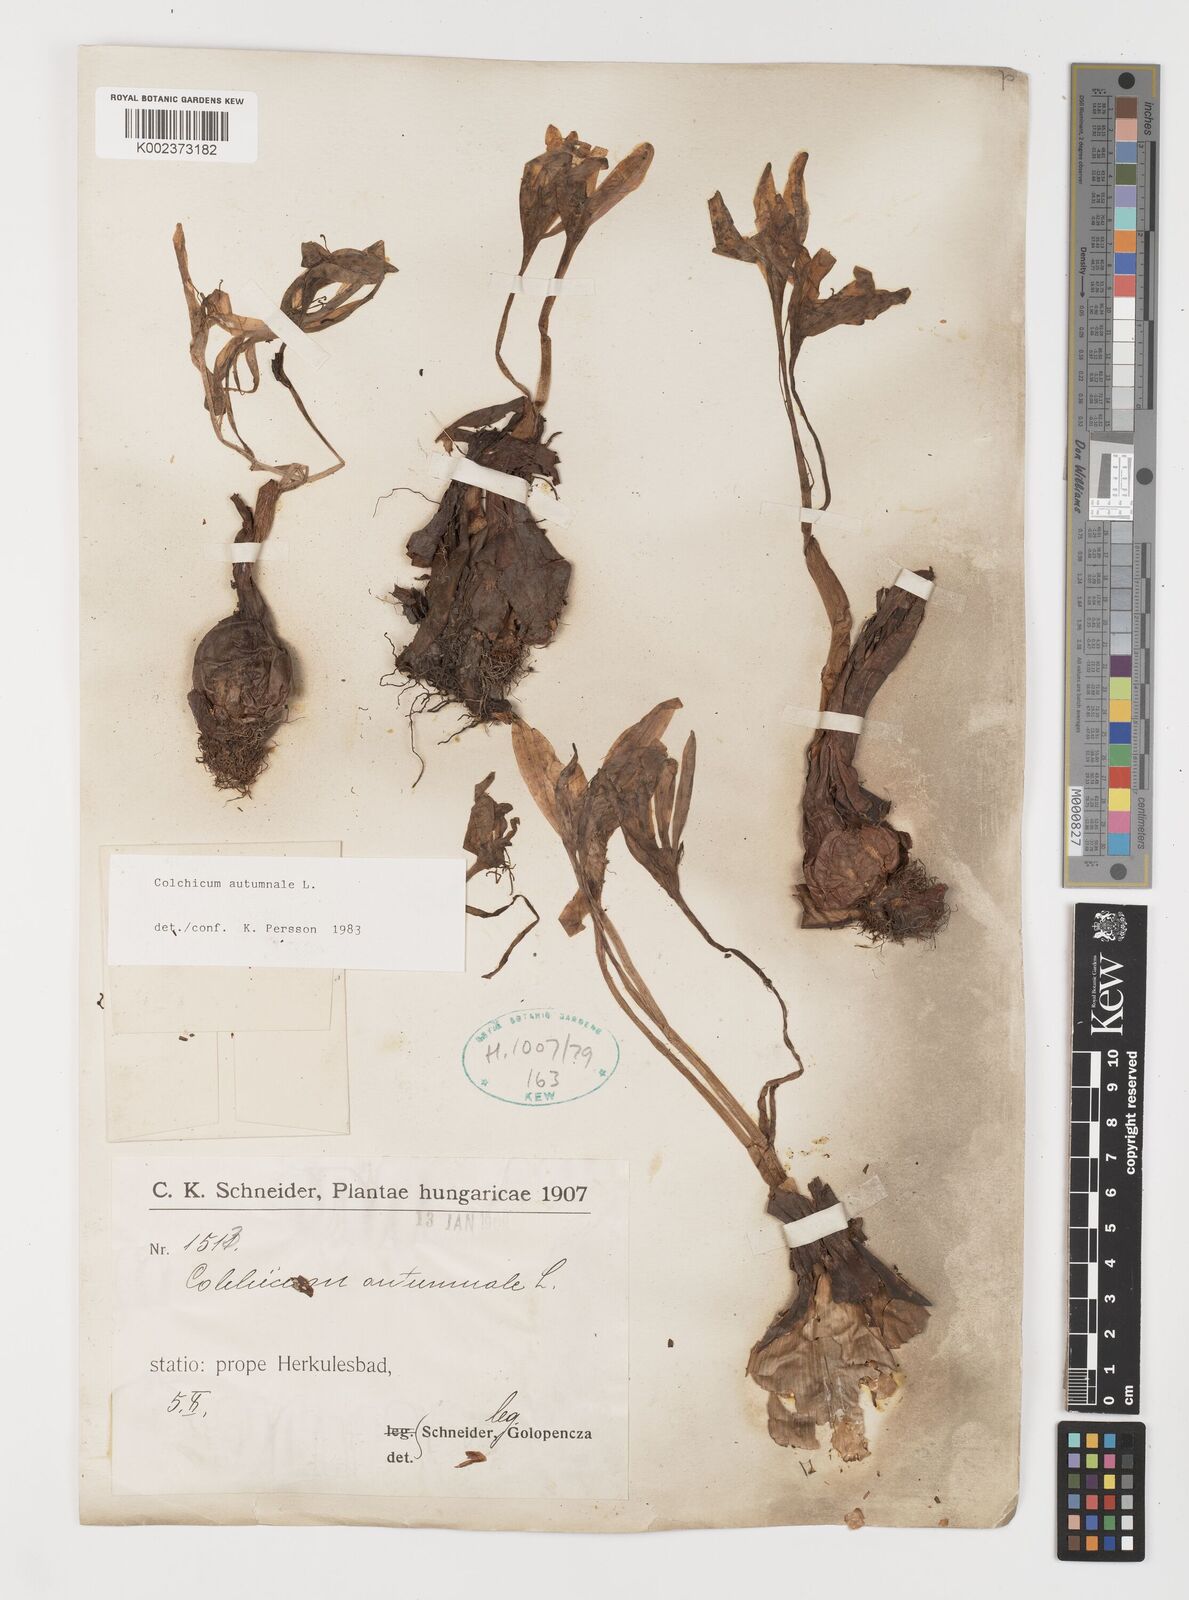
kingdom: Plantae
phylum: Tracheophyta
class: Liliopsida
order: Liliales
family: Colchicaceae
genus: Colchicum
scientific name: Colchicum autumnale
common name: Autumn crocus
